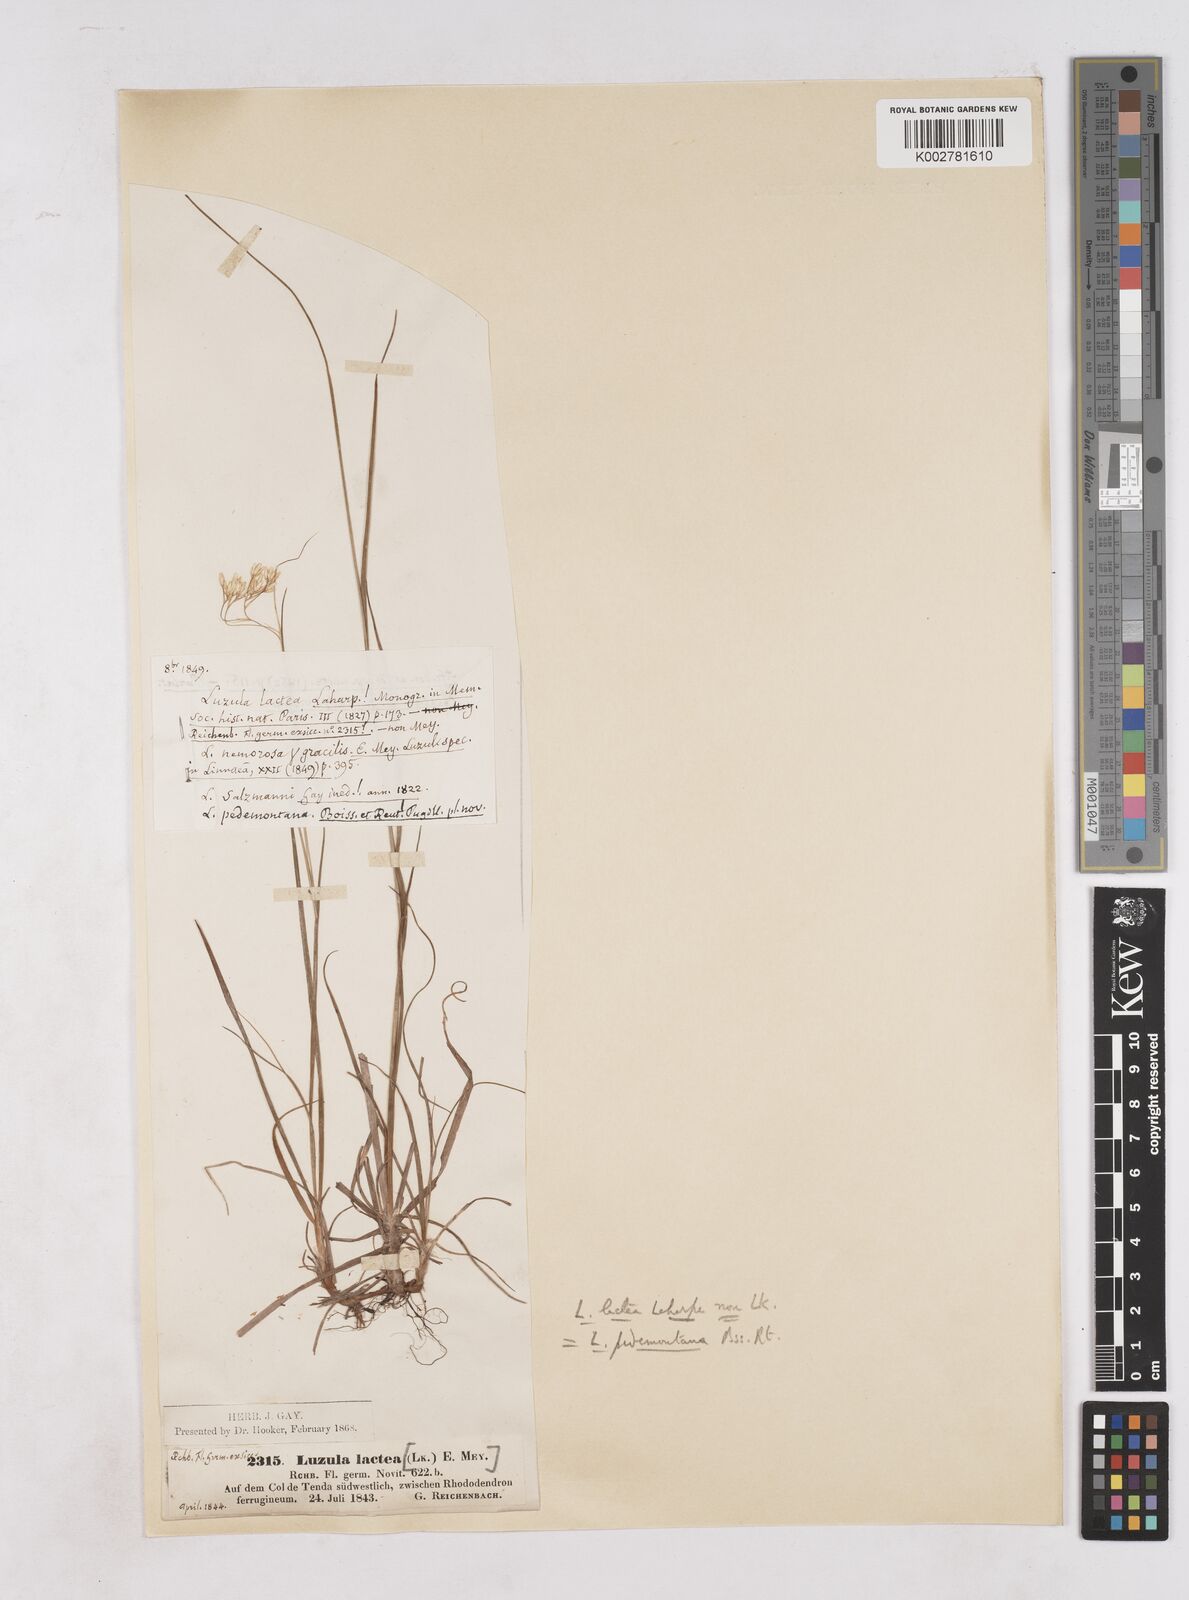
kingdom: Plantae
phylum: Tracheophyta
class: Liliopsida
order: Poales
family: Juncaceae
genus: Luzula
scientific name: Luzula pedemontana
